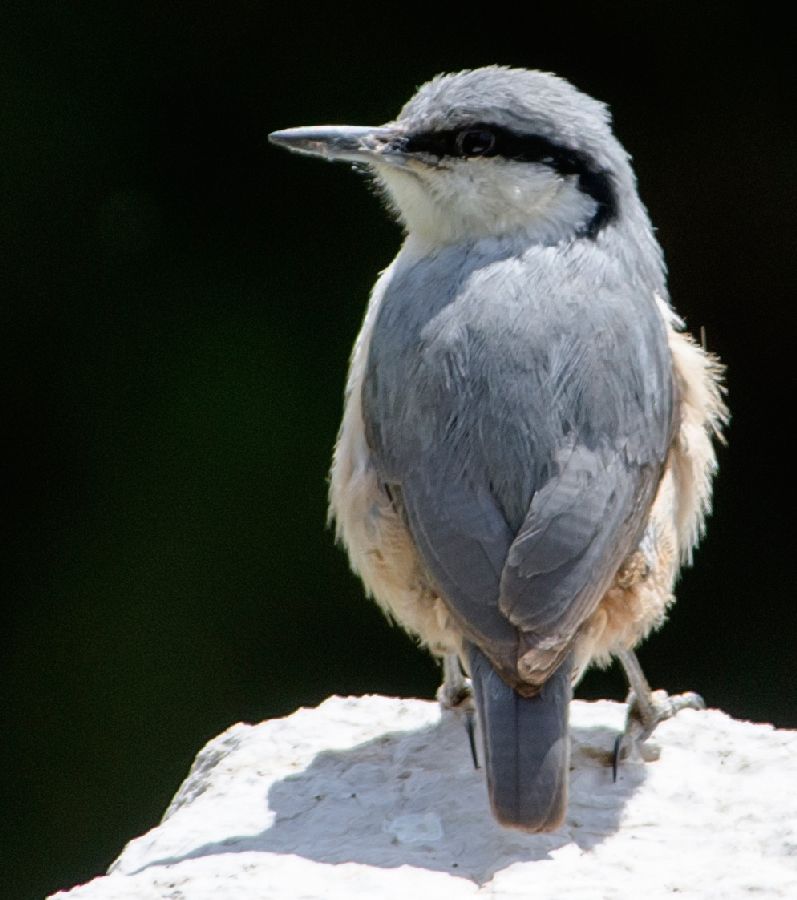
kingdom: Animalia
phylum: Chordata
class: Aves
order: Passeriformes
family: Sittidae
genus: Sitta
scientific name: Sitta neumayer
